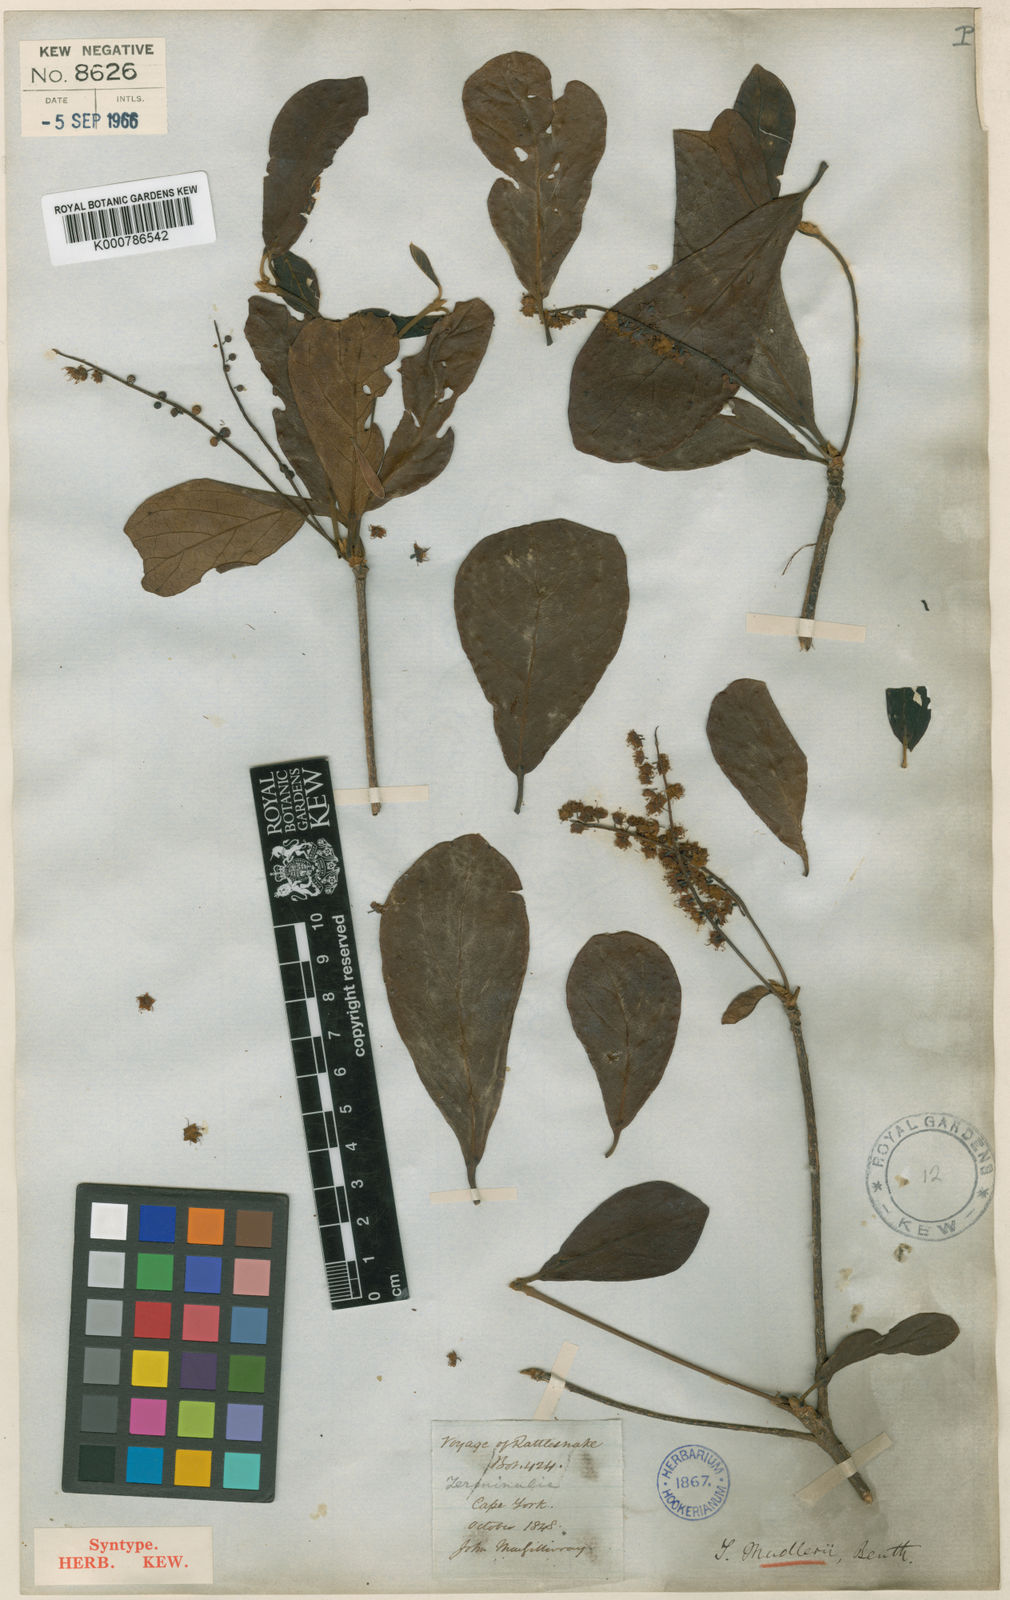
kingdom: Plantae
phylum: Tracheophyta
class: Magnoliopsida
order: Myrtales
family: Combretaceae
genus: Terminalia
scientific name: Terminalia muelleri
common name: Australian almond
